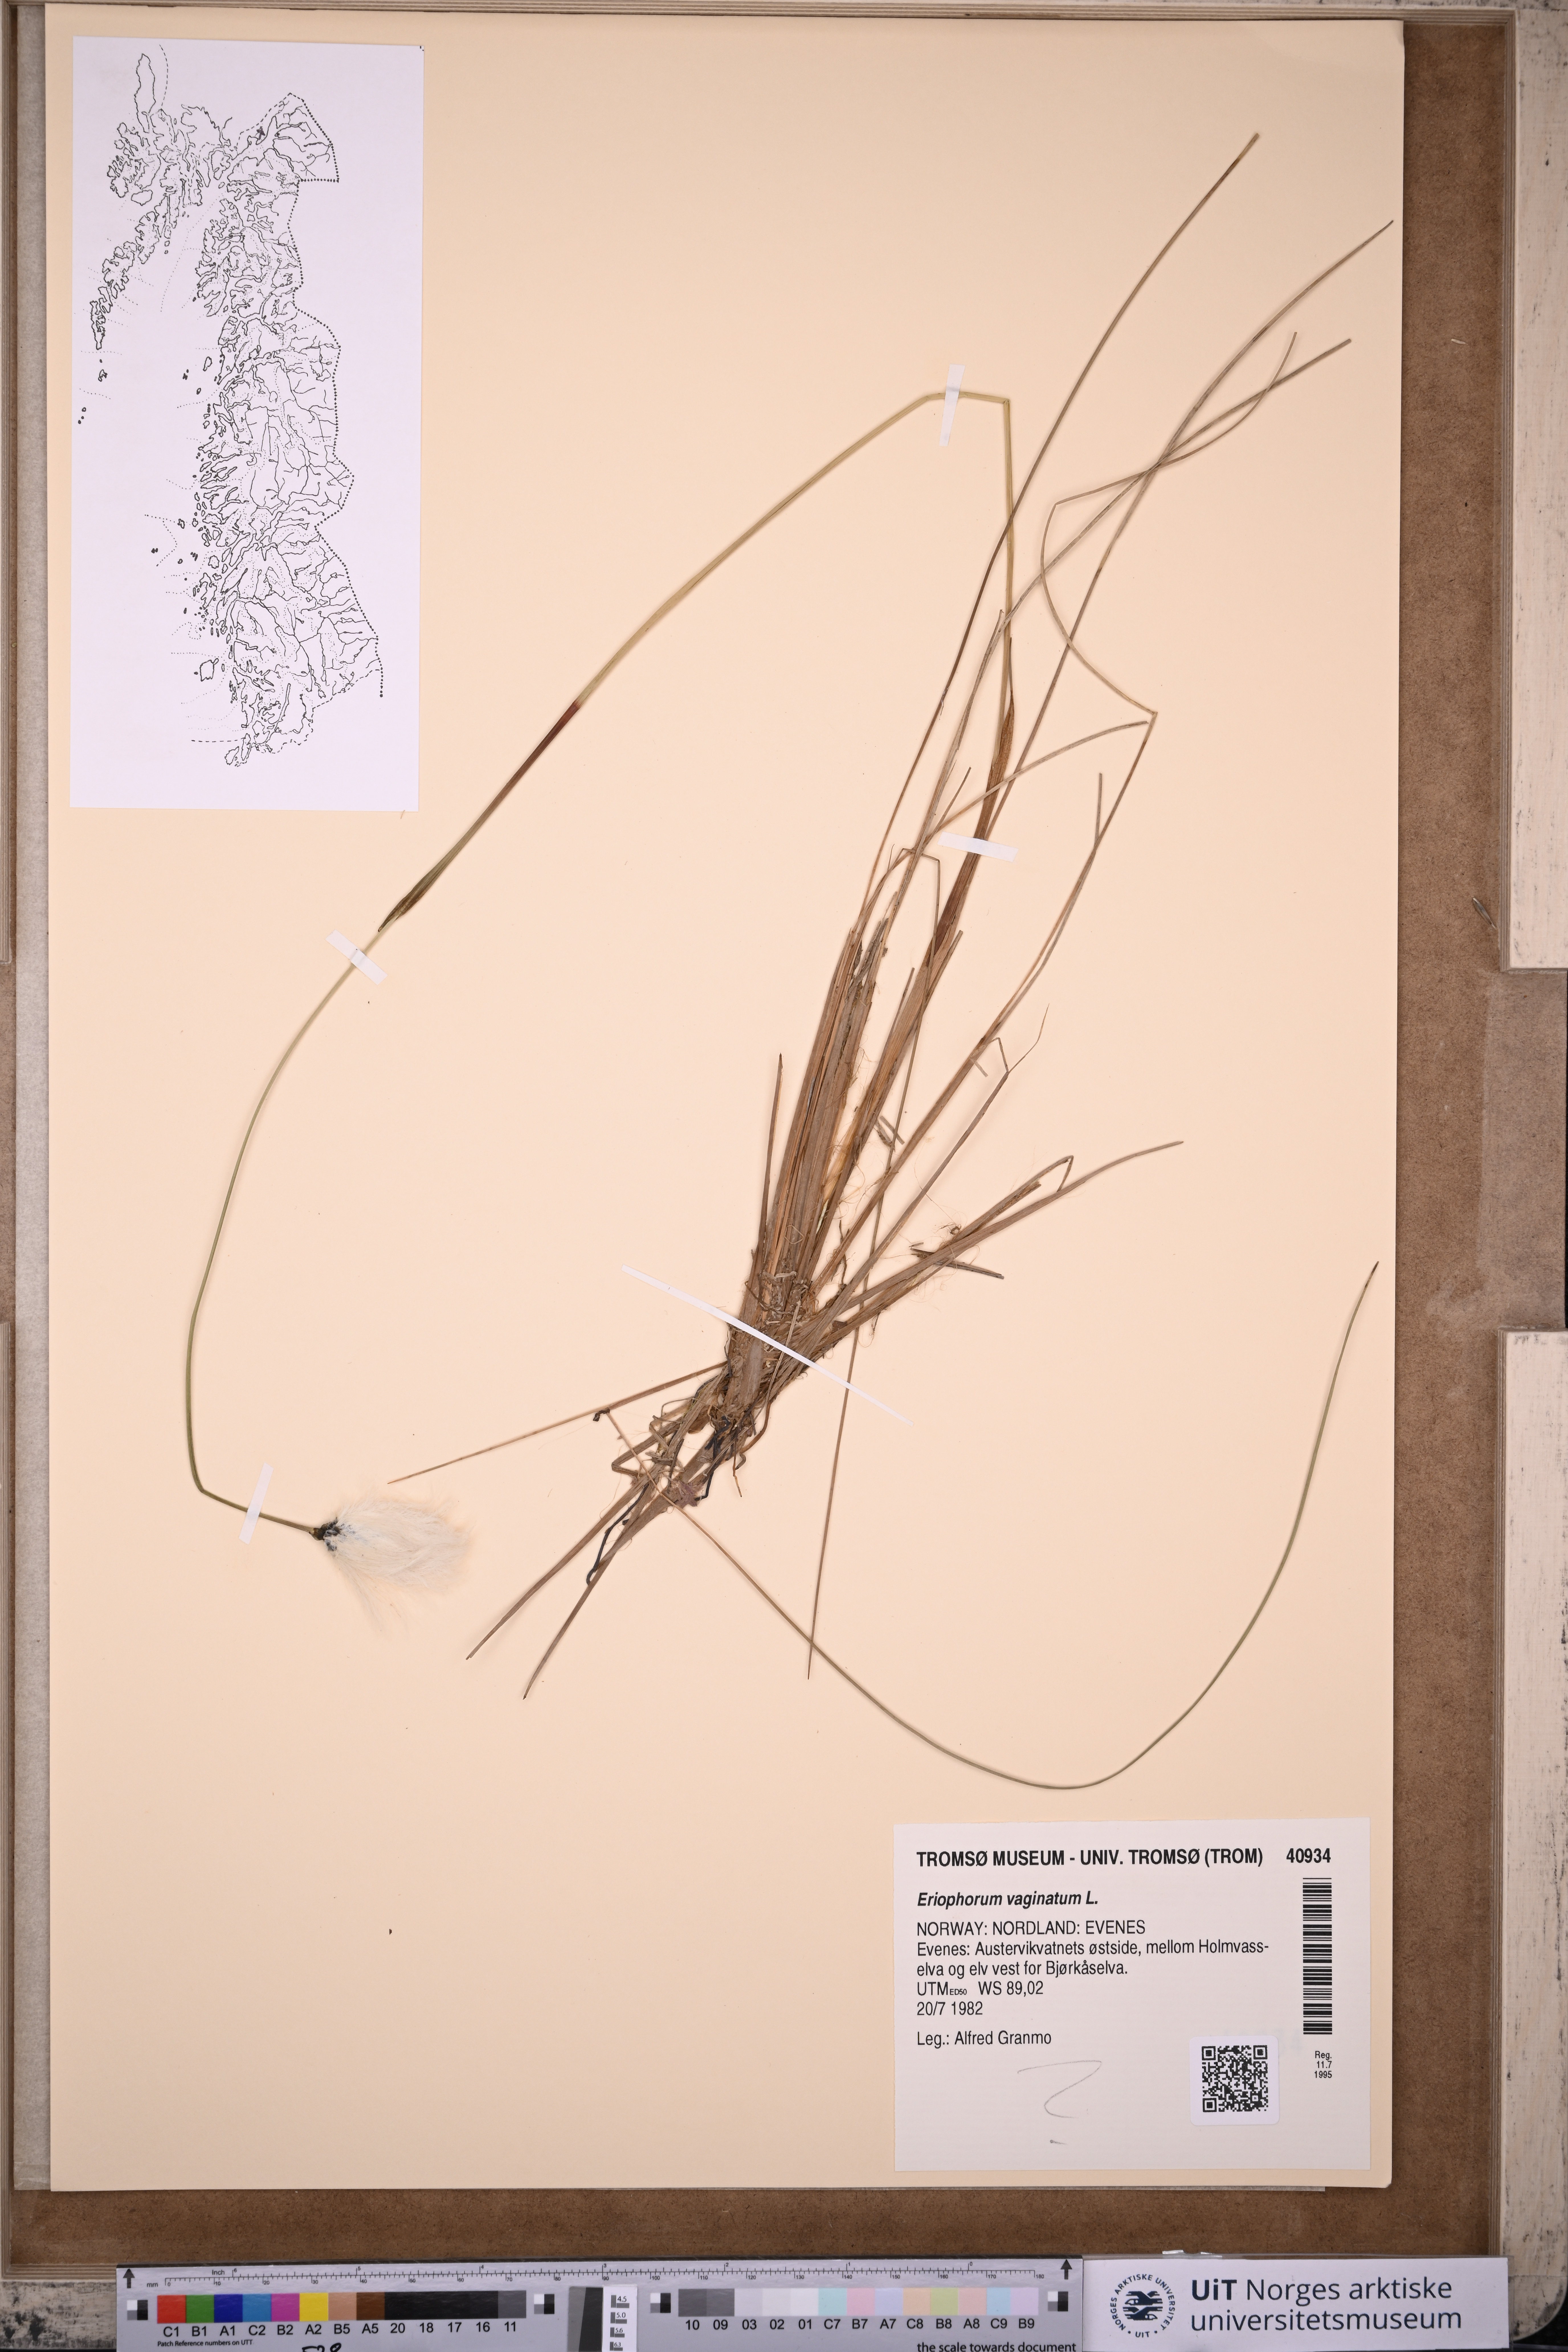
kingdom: Plantae
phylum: Tracheophyta
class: Liliopsida
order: Poales
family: Cyperaceae
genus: Eriophorum
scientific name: Eriophorum vaginatum
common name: Hare's-tail cottongrass
